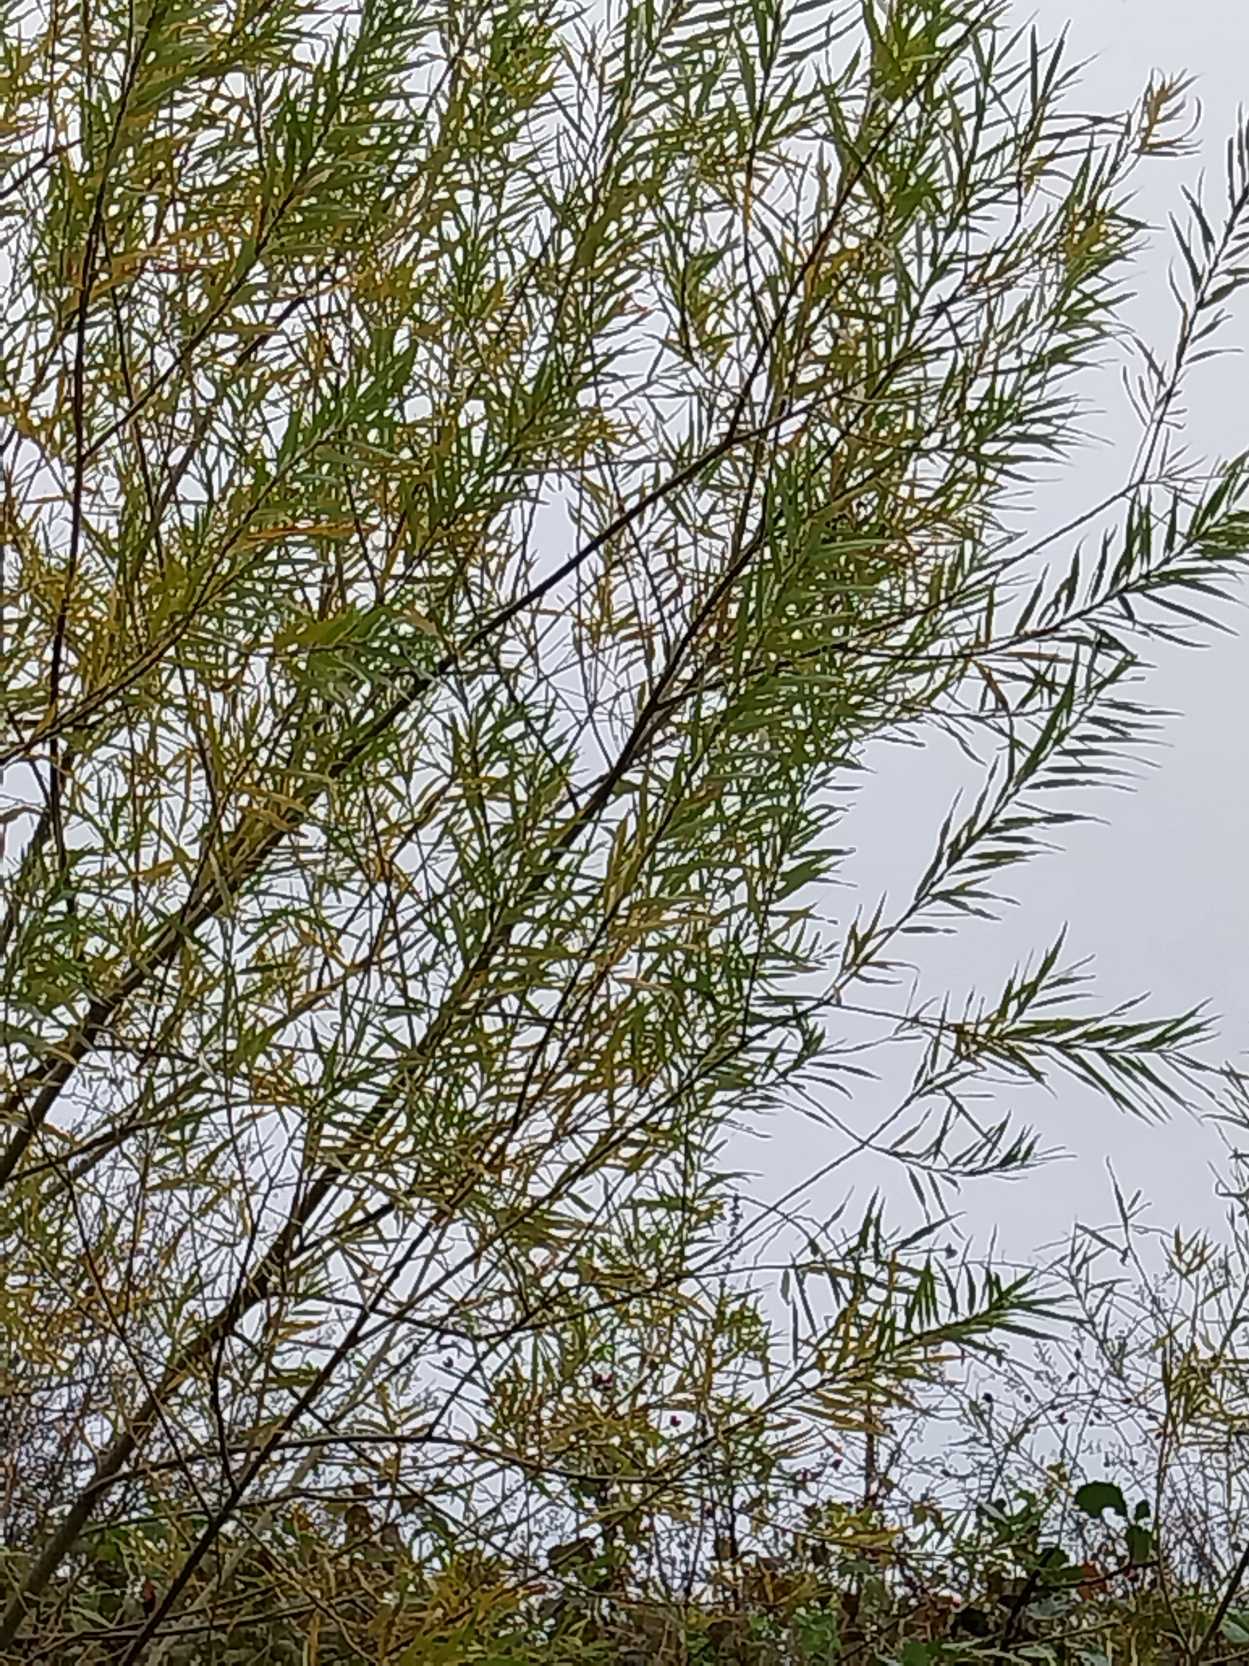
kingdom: Plantae
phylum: Tracheophyta
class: Magnoliopsida
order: Malpighiales
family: Salicaceae
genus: Salix
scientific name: Salix viminalis
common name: Bånd-pil
